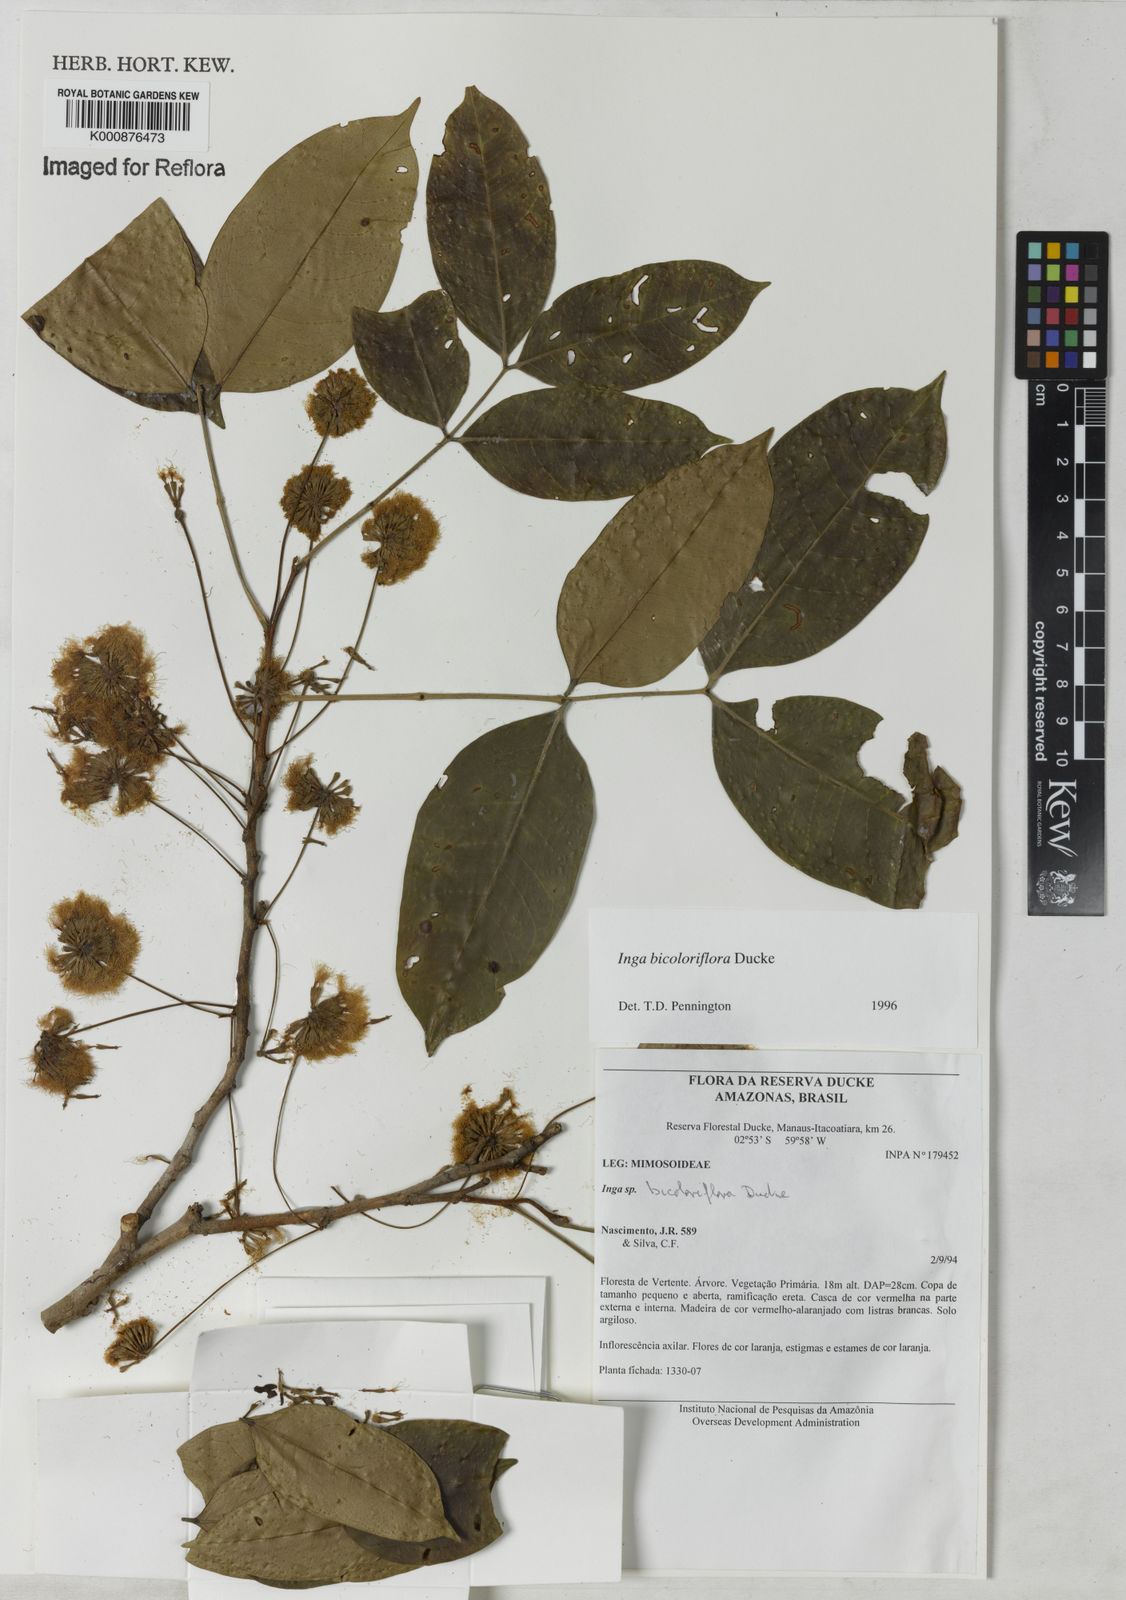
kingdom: Plantae
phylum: Tracheophyta
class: Magnoliopsida
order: Fabales
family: Fabaceae
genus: Inga
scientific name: Inga bicoloriflora
